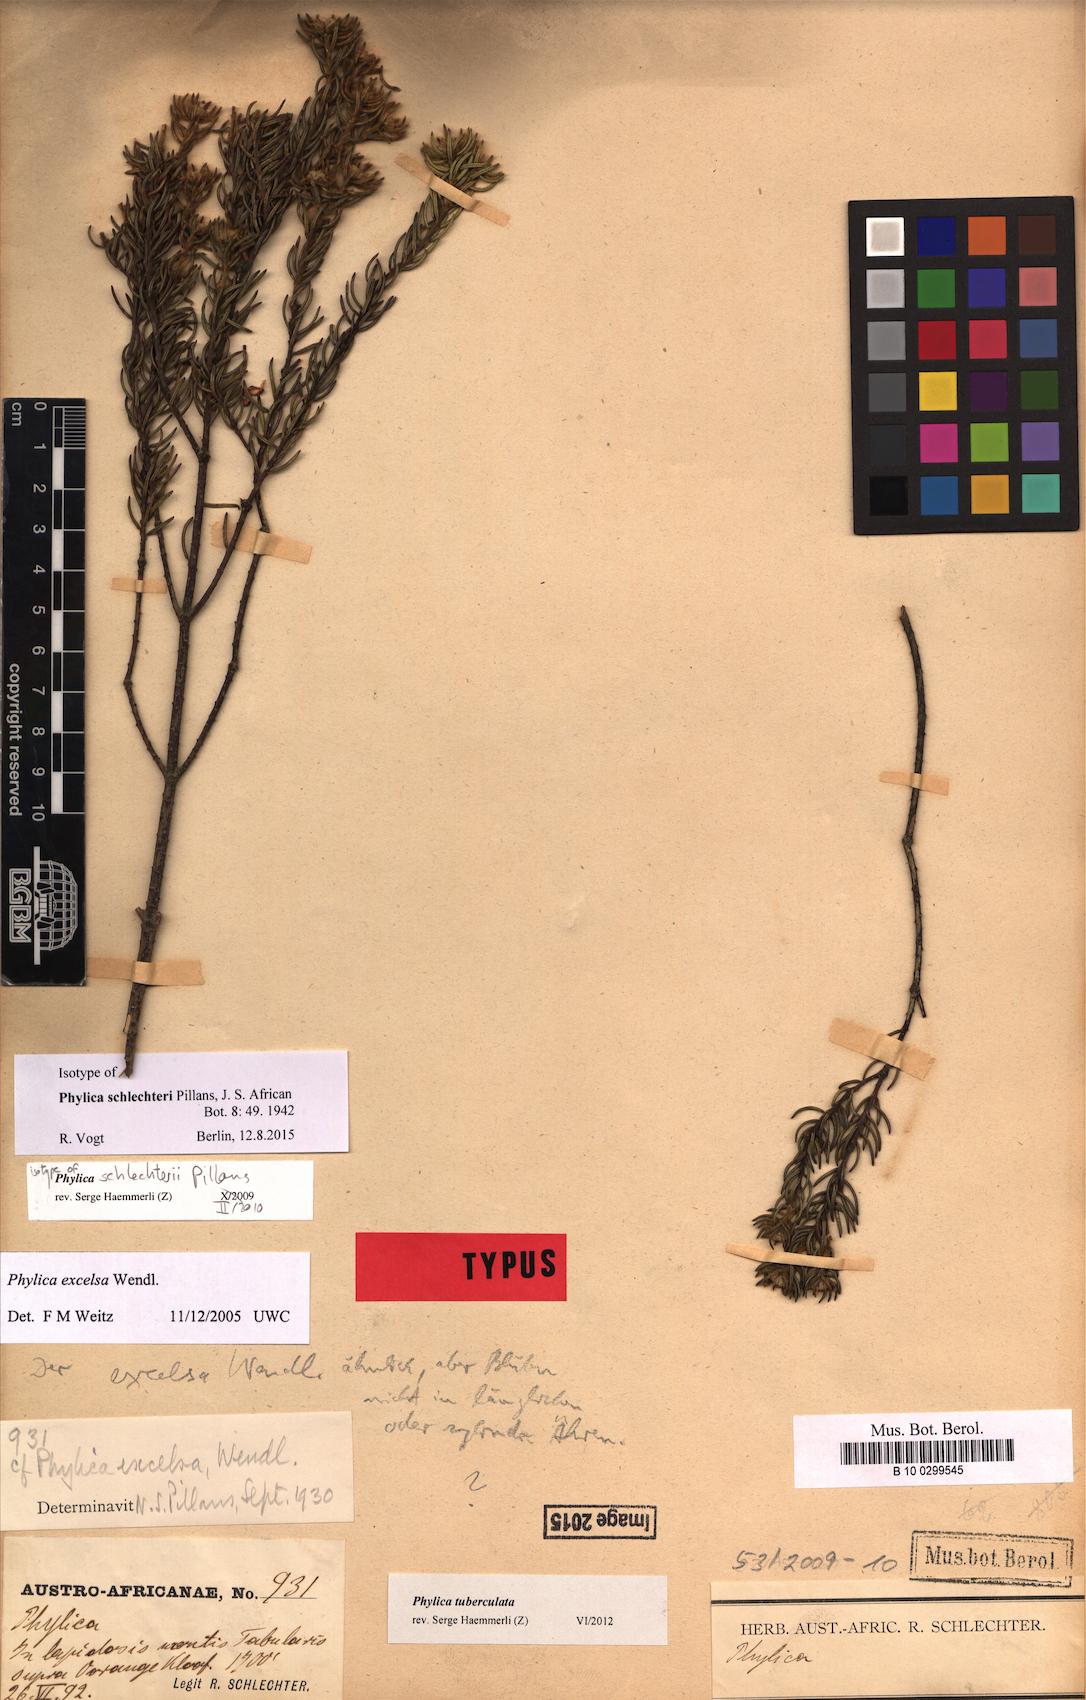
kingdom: Plantae
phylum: Tracheophyta
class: Magnoliopsida
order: Rosales
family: Rhamnaceae
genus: Phylica
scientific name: Phylica tuberculata
